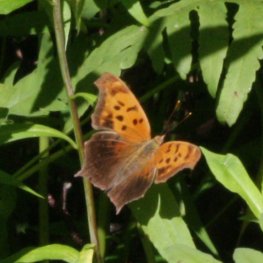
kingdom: Animalia
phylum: Arthropoda
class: Insecta
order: Lepidoptera
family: Nymphalidae
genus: Polygonia
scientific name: Polygonia interrogationis
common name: Question Mark
